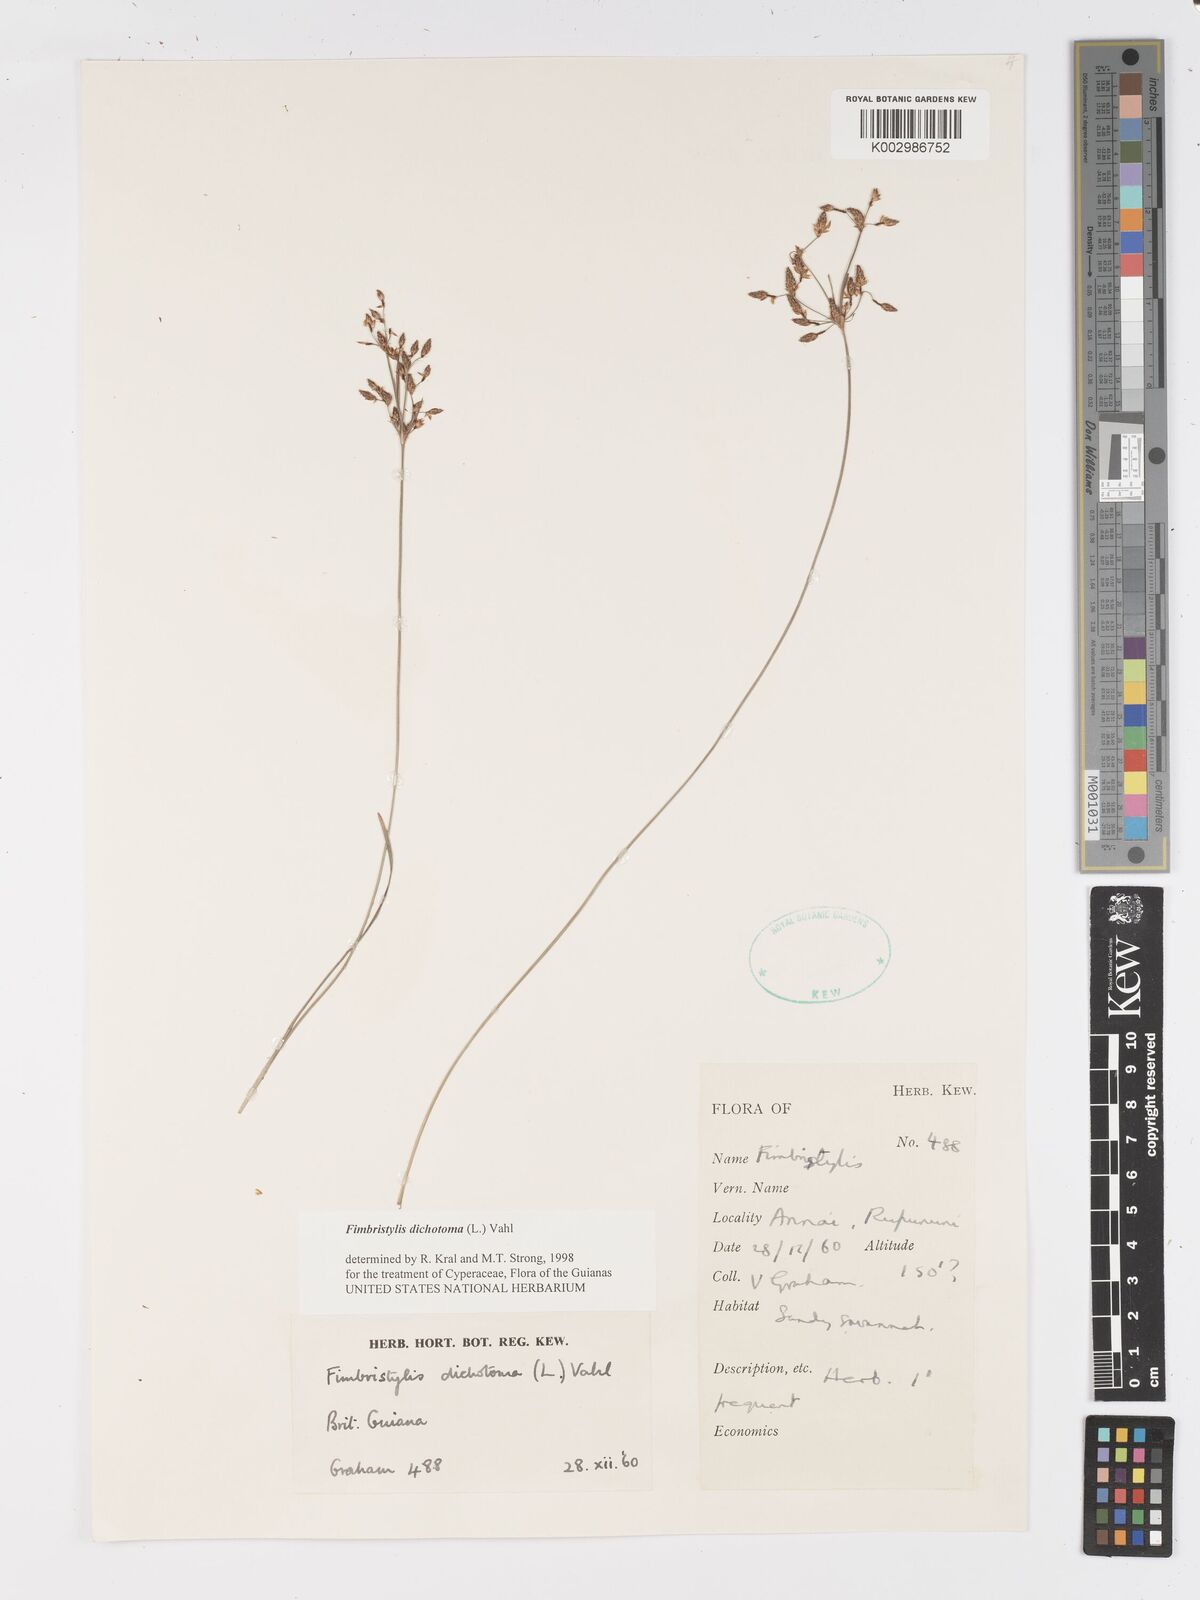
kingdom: Plantae
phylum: Tracheophyta
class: Liliopsida
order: Poales
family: Cyperaceae
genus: Fimbristylis
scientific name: Fimbristylis dichotoma
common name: Forked fimbry
